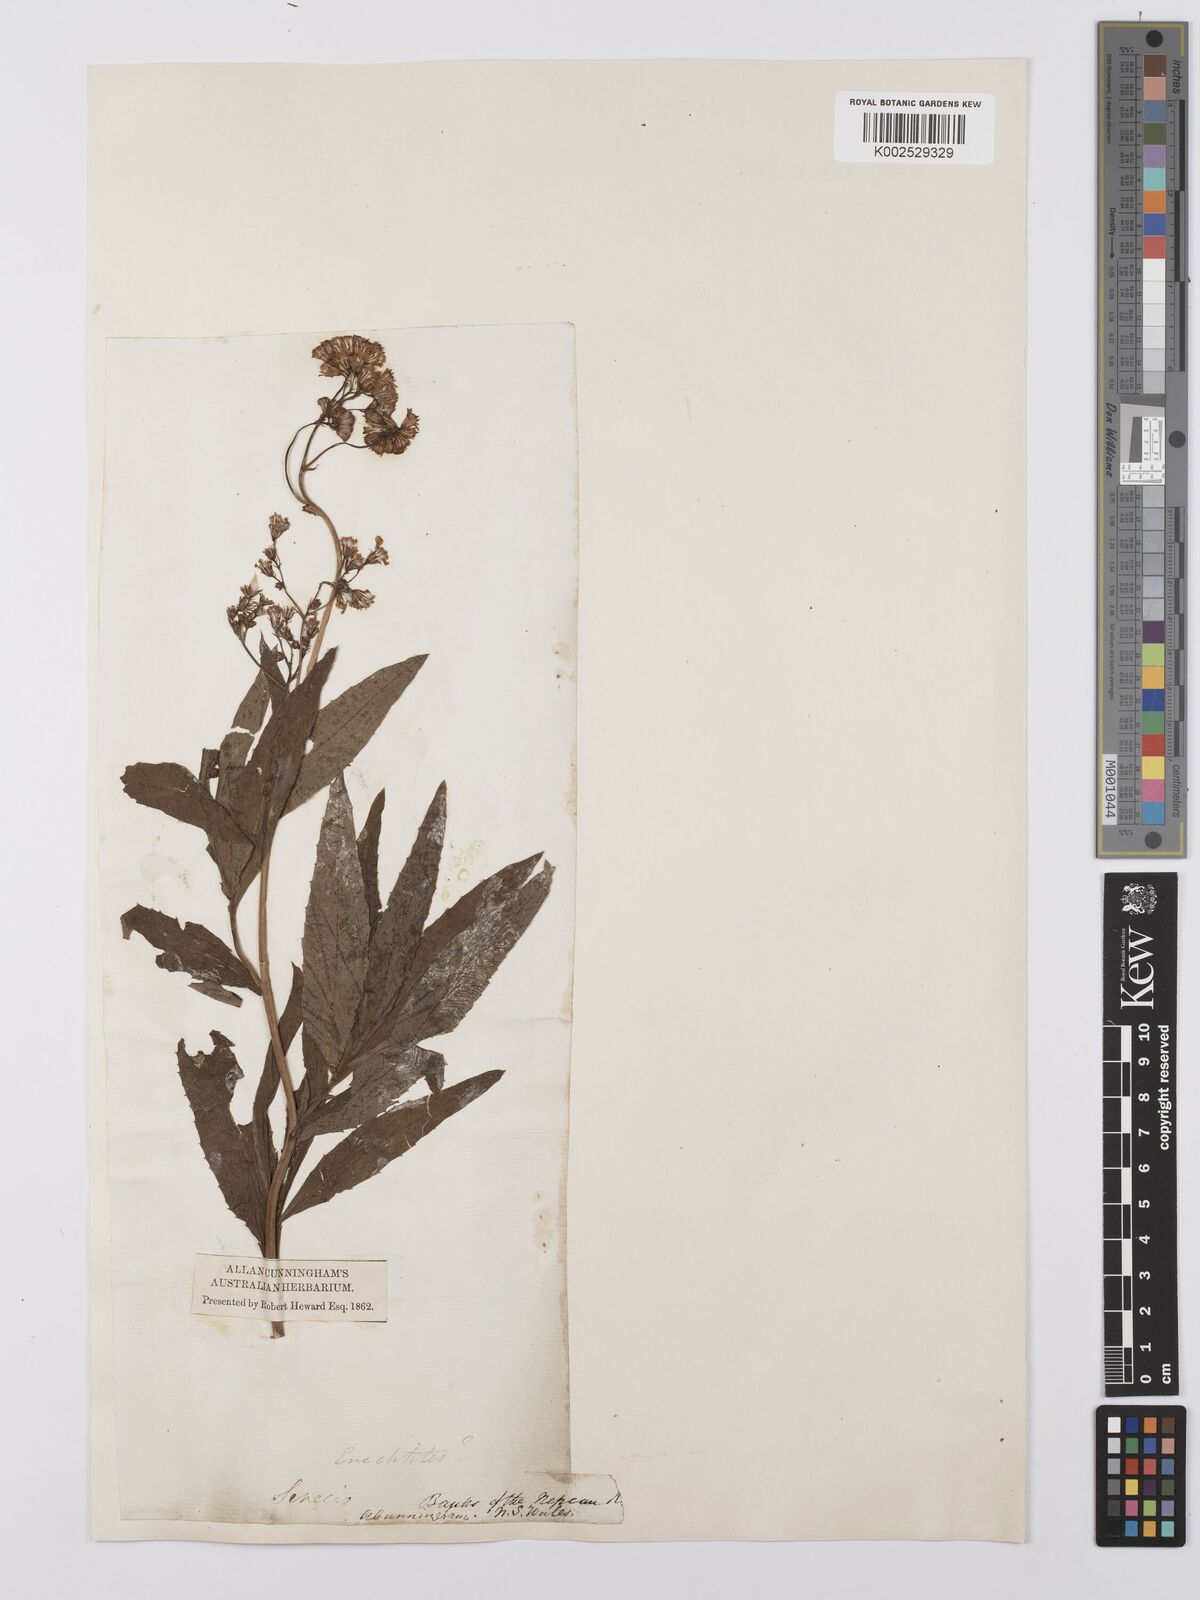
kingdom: Plantae
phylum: Tracheophyta
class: Magnoliopsida
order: Asterales
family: Asteraceae
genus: Senecio
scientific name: Senecio linearifolius
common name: Fireweed groundsel
